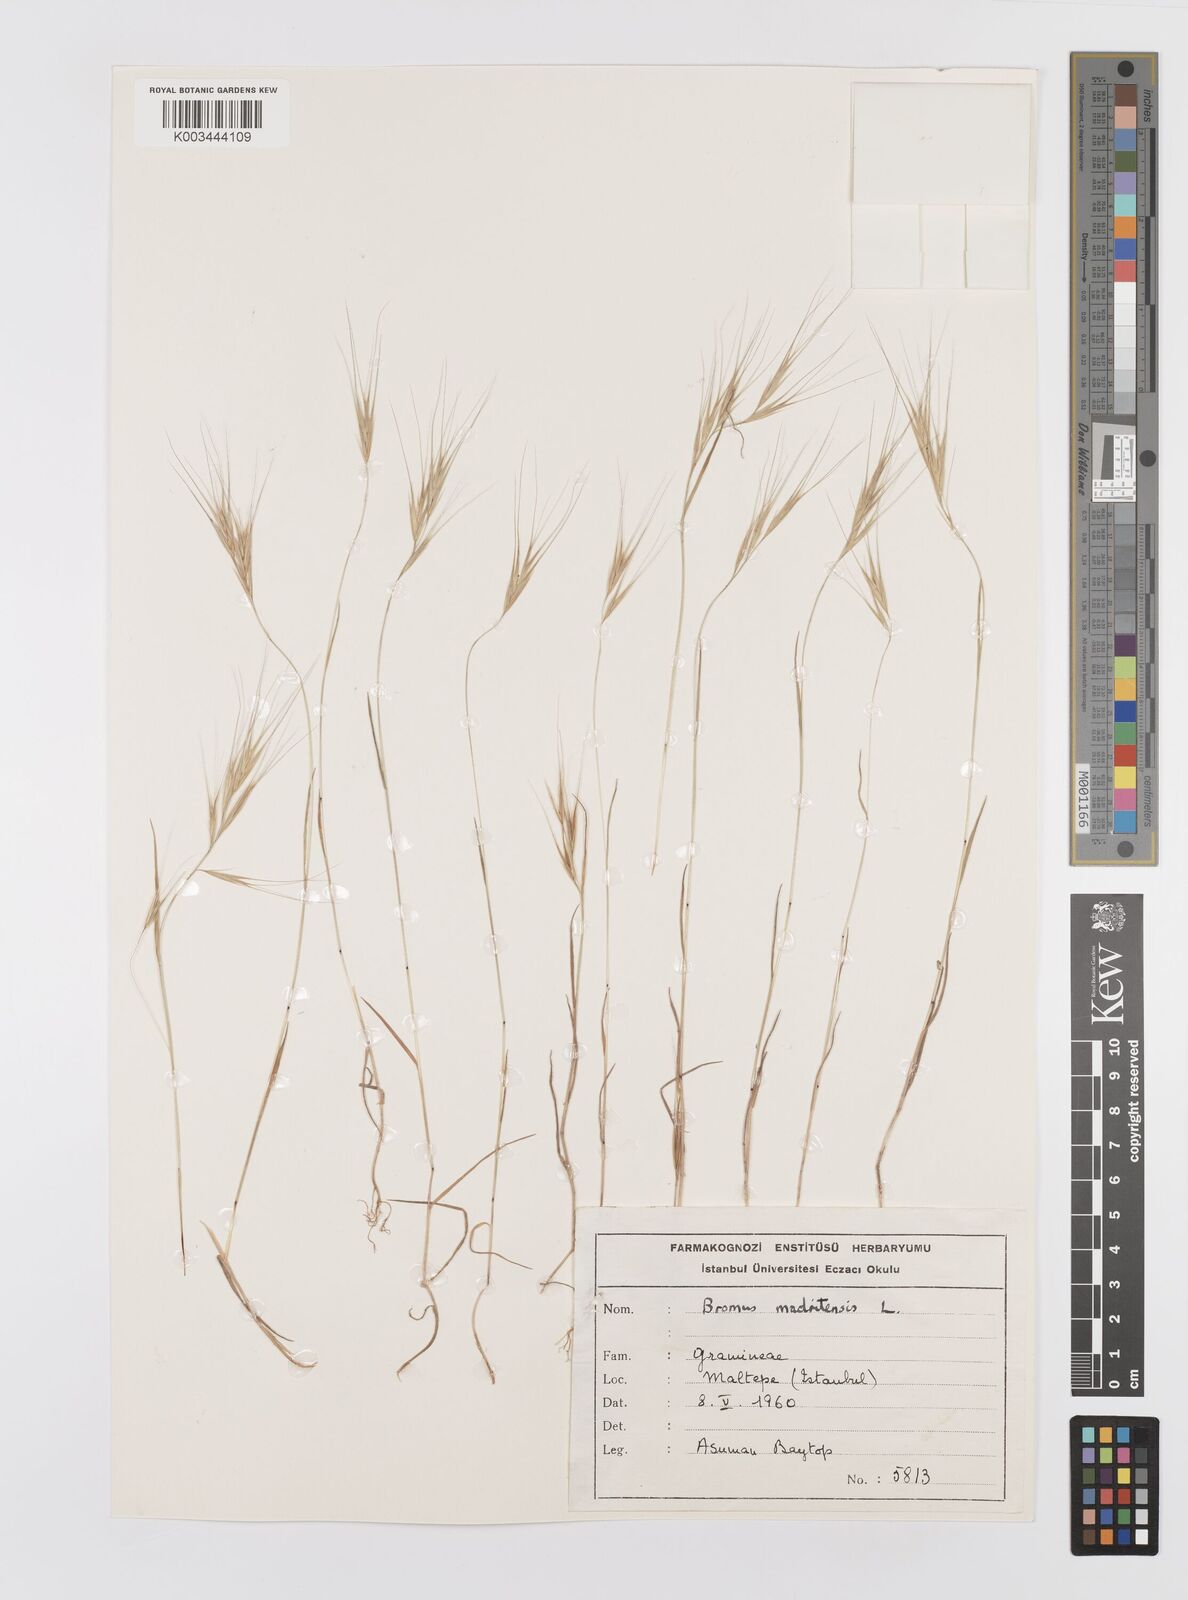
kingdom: Plantae
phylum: Tracheophyta
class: Liliopsida
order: Poales
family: Poaceae
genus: Bromus
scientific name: Bromus madritensis
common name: Compact brome
